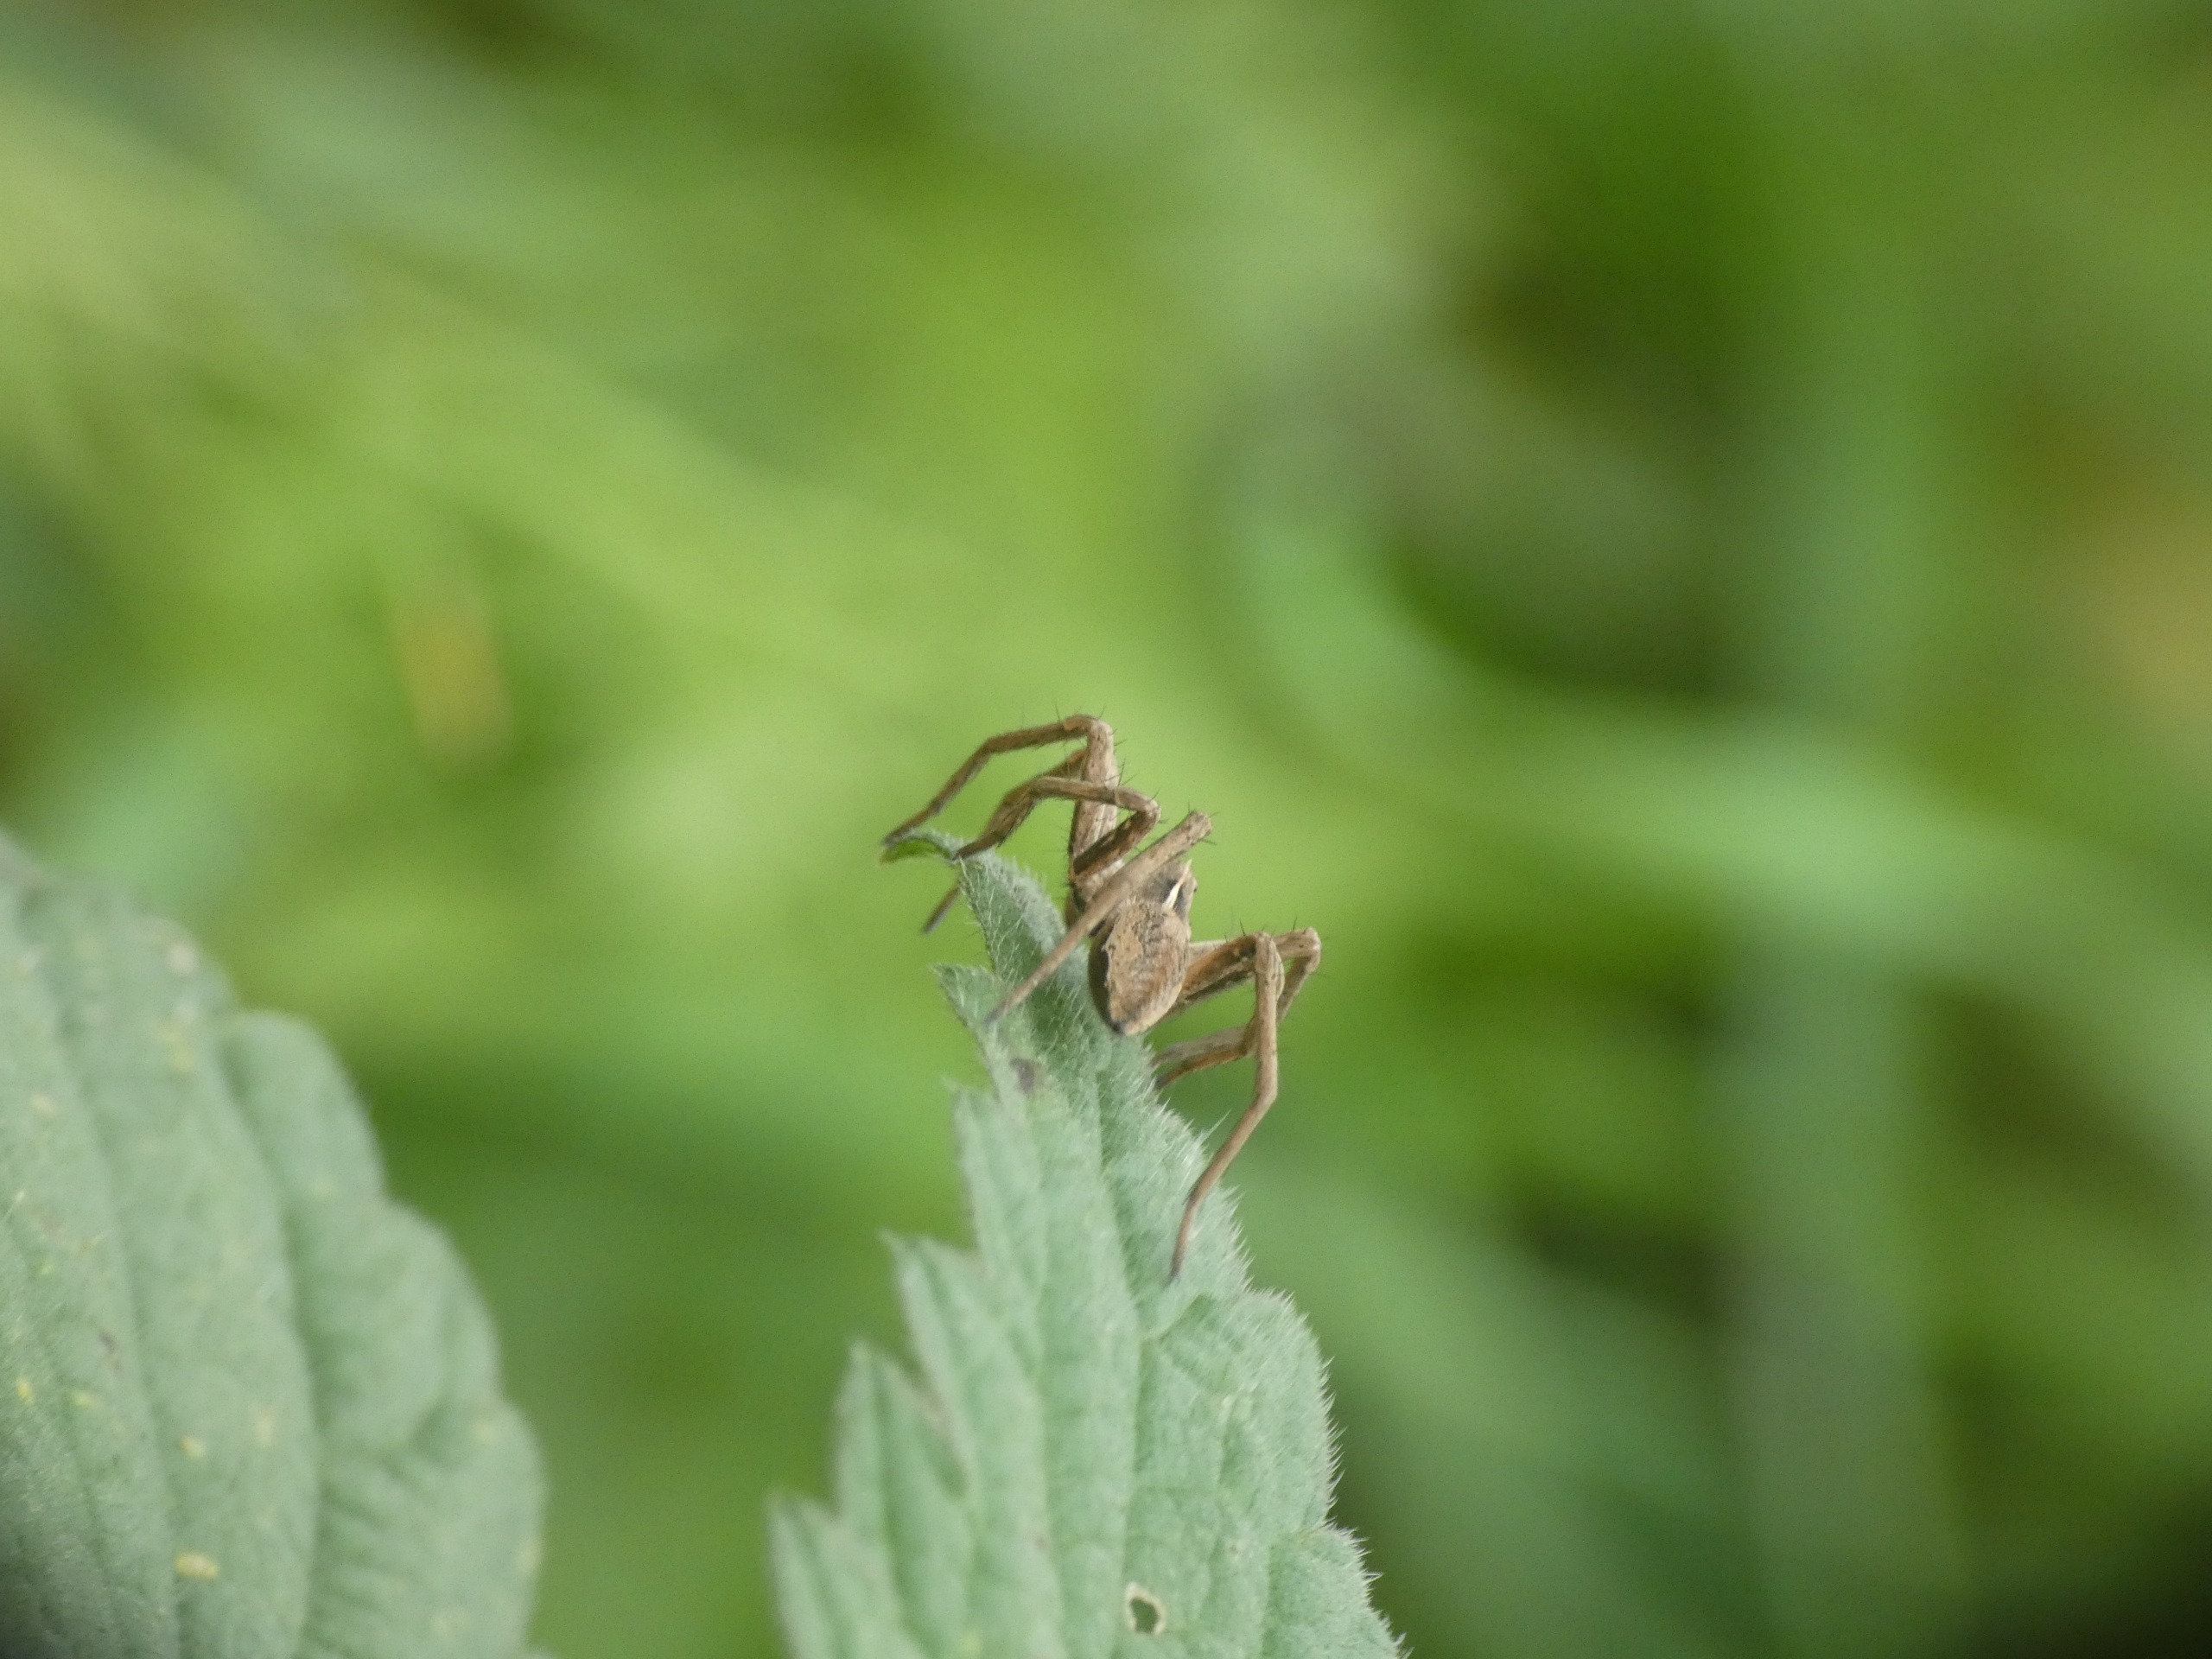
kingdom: Animalia
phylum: Arthropoda
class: Arachnida
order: Araneae
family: Pisauridae
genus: Pisaura
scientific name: Pisaura mirabilis
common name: Almindelig rovedderkop
